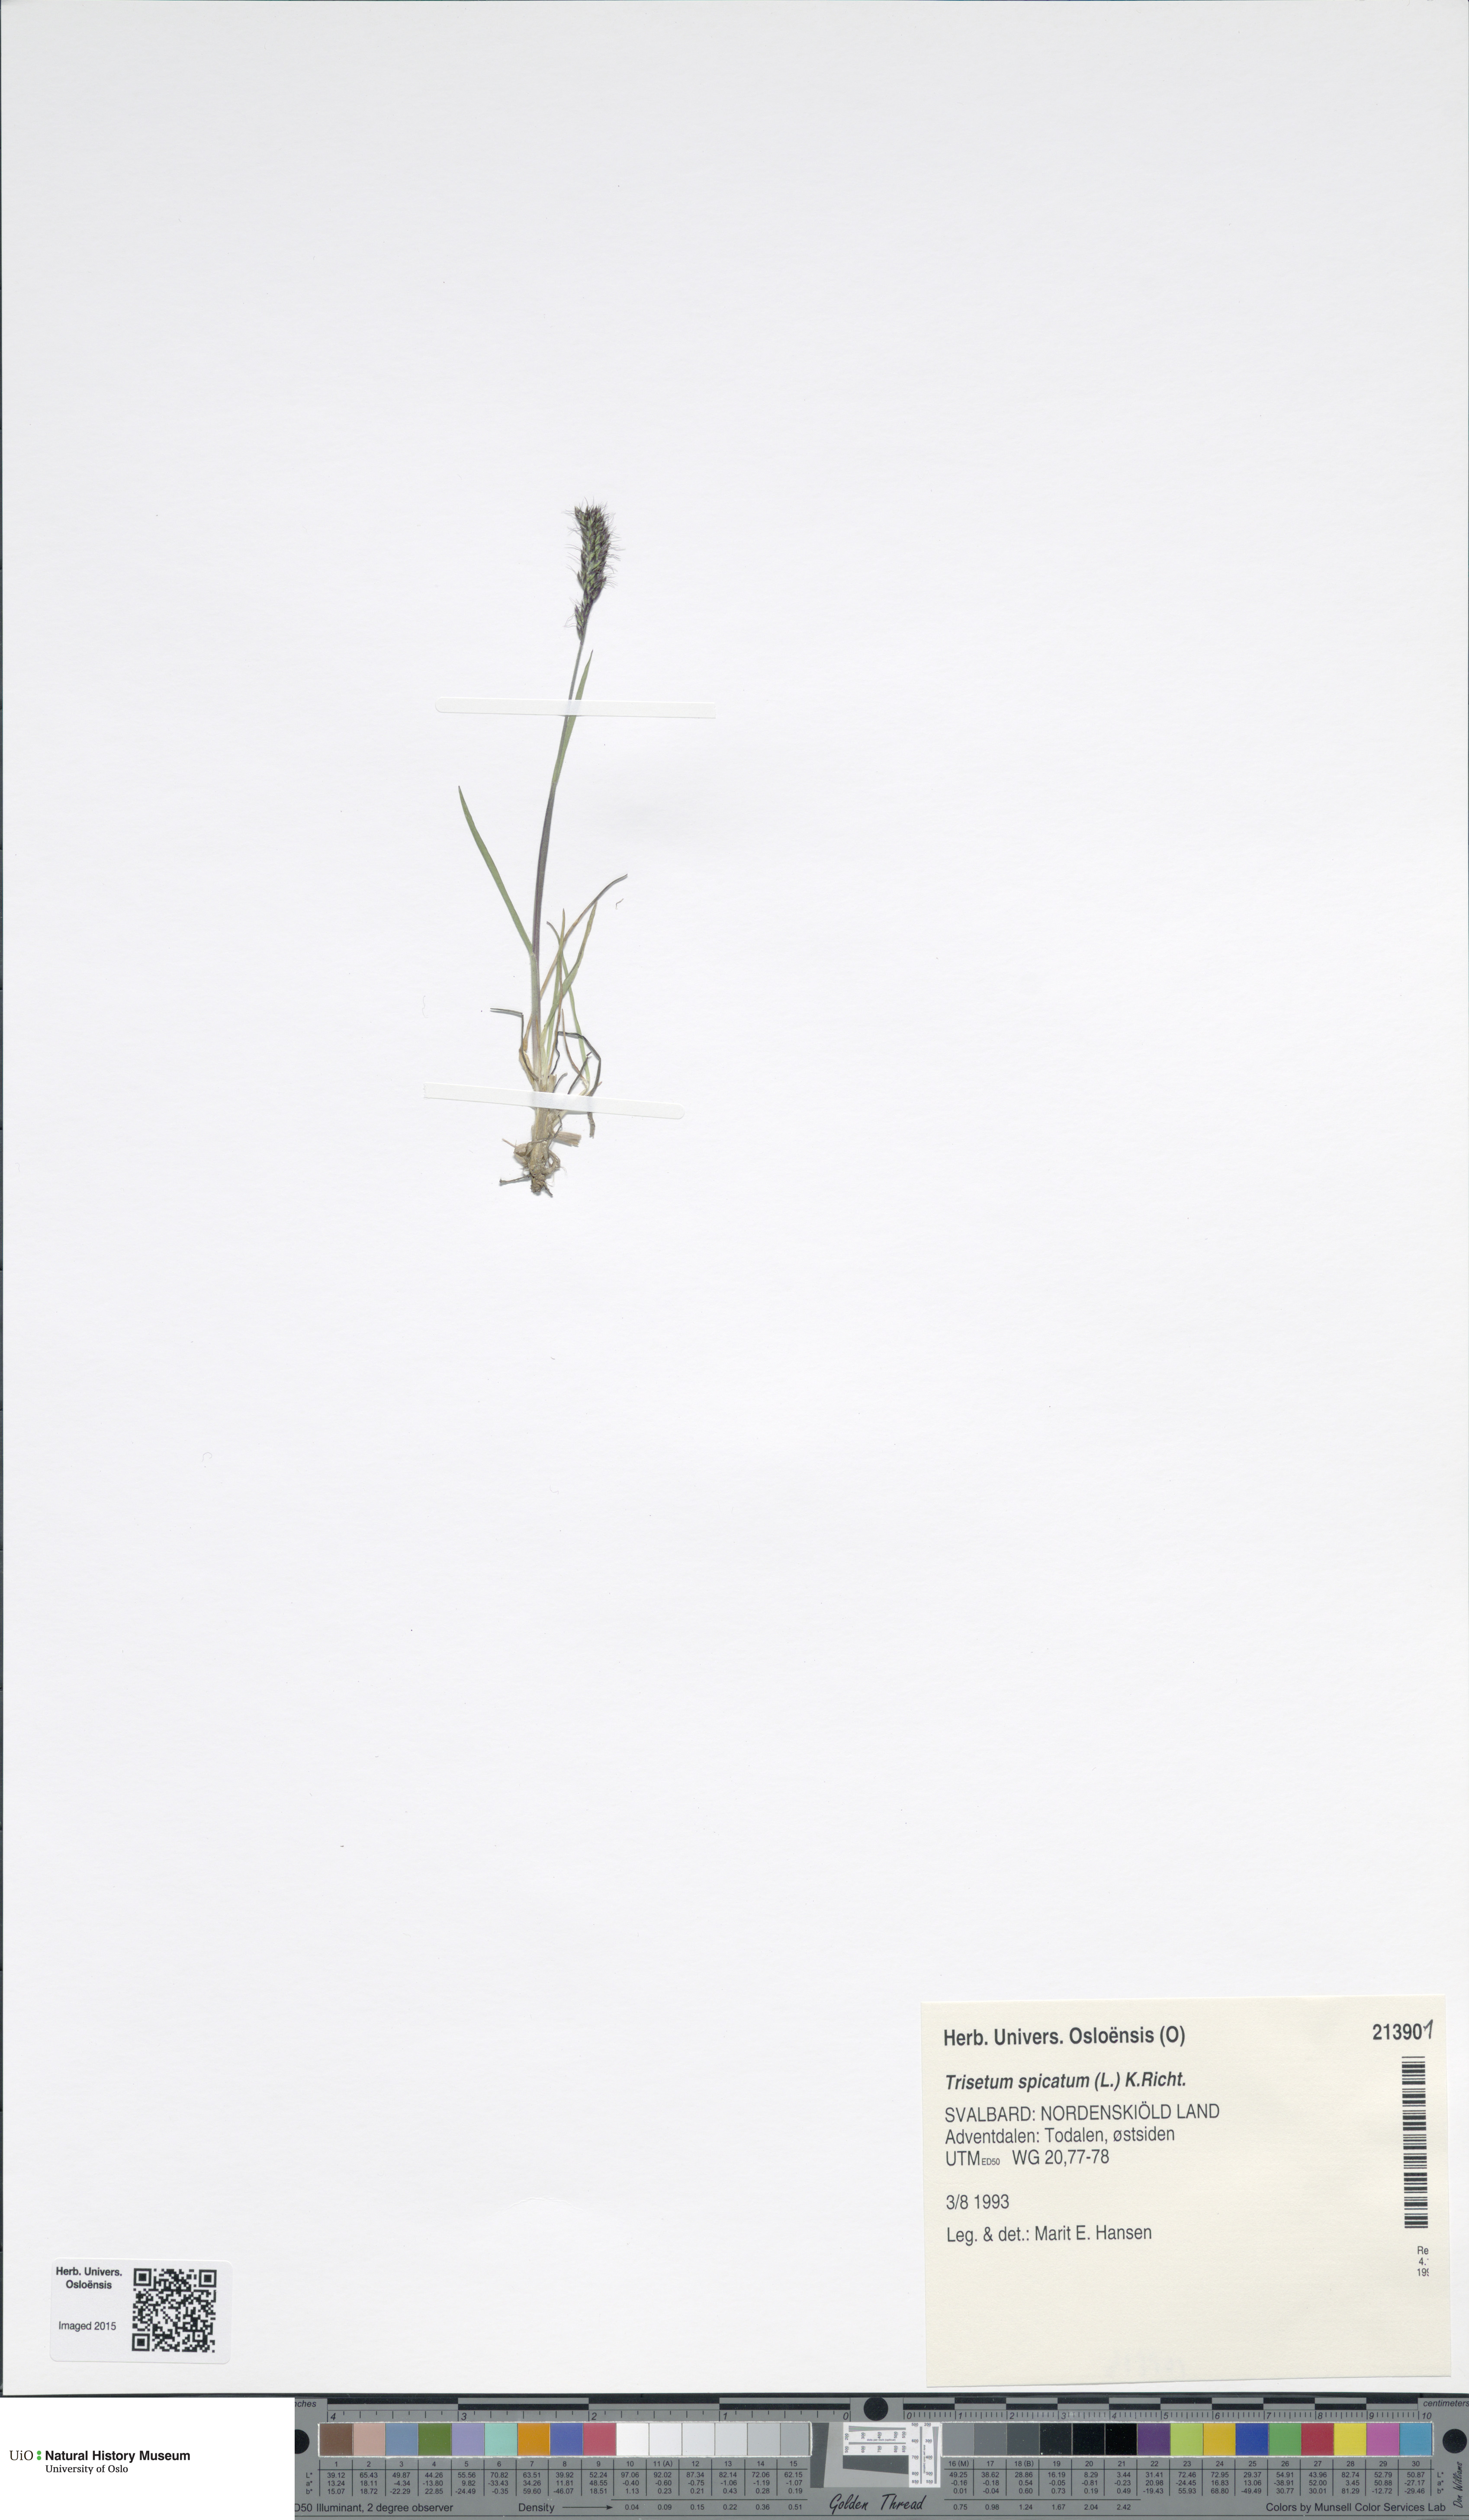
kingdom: Plantae
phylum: Tracheophyta
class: Liliopsida
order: Poales
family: Poaceae
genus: Koeleria
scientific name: Koeleria spicata
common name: Mountain trisetum
